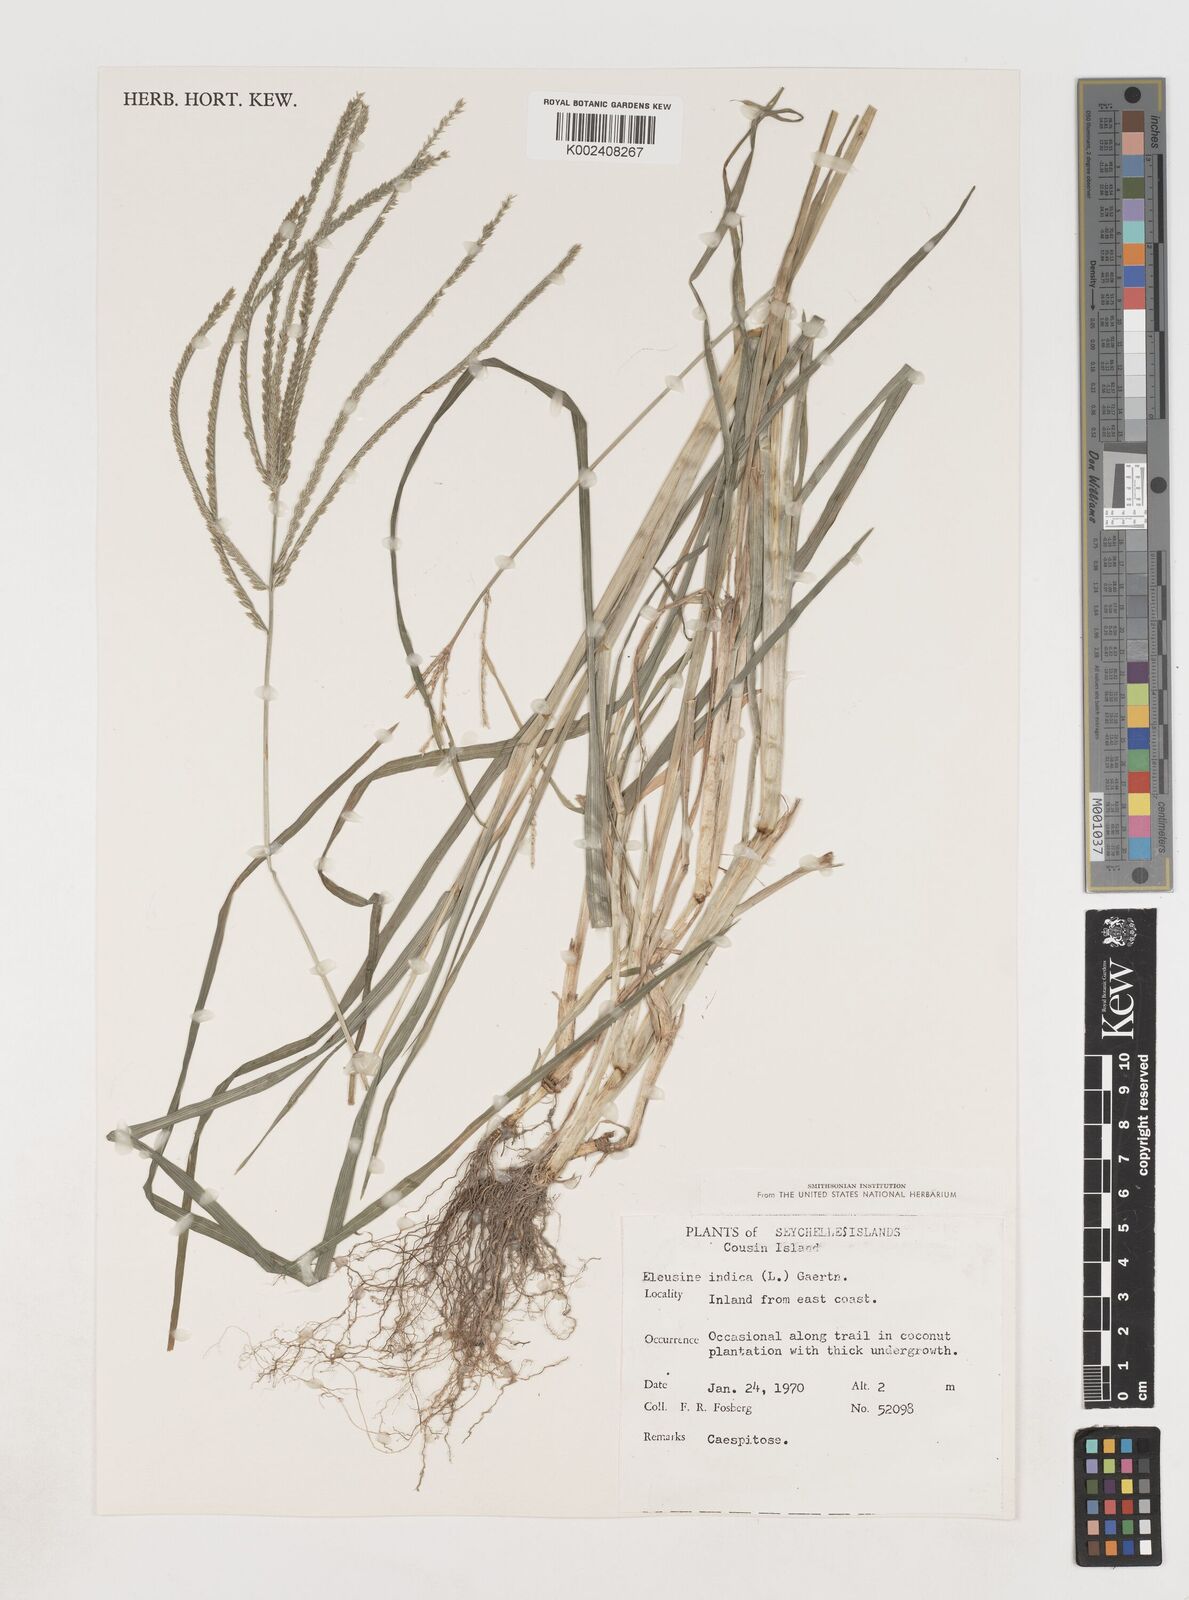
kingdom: Plantae
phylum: Tracheophyta
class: Liliopsida
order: Poales
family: Poaceae
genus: Eleusine
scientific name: Eleusine
